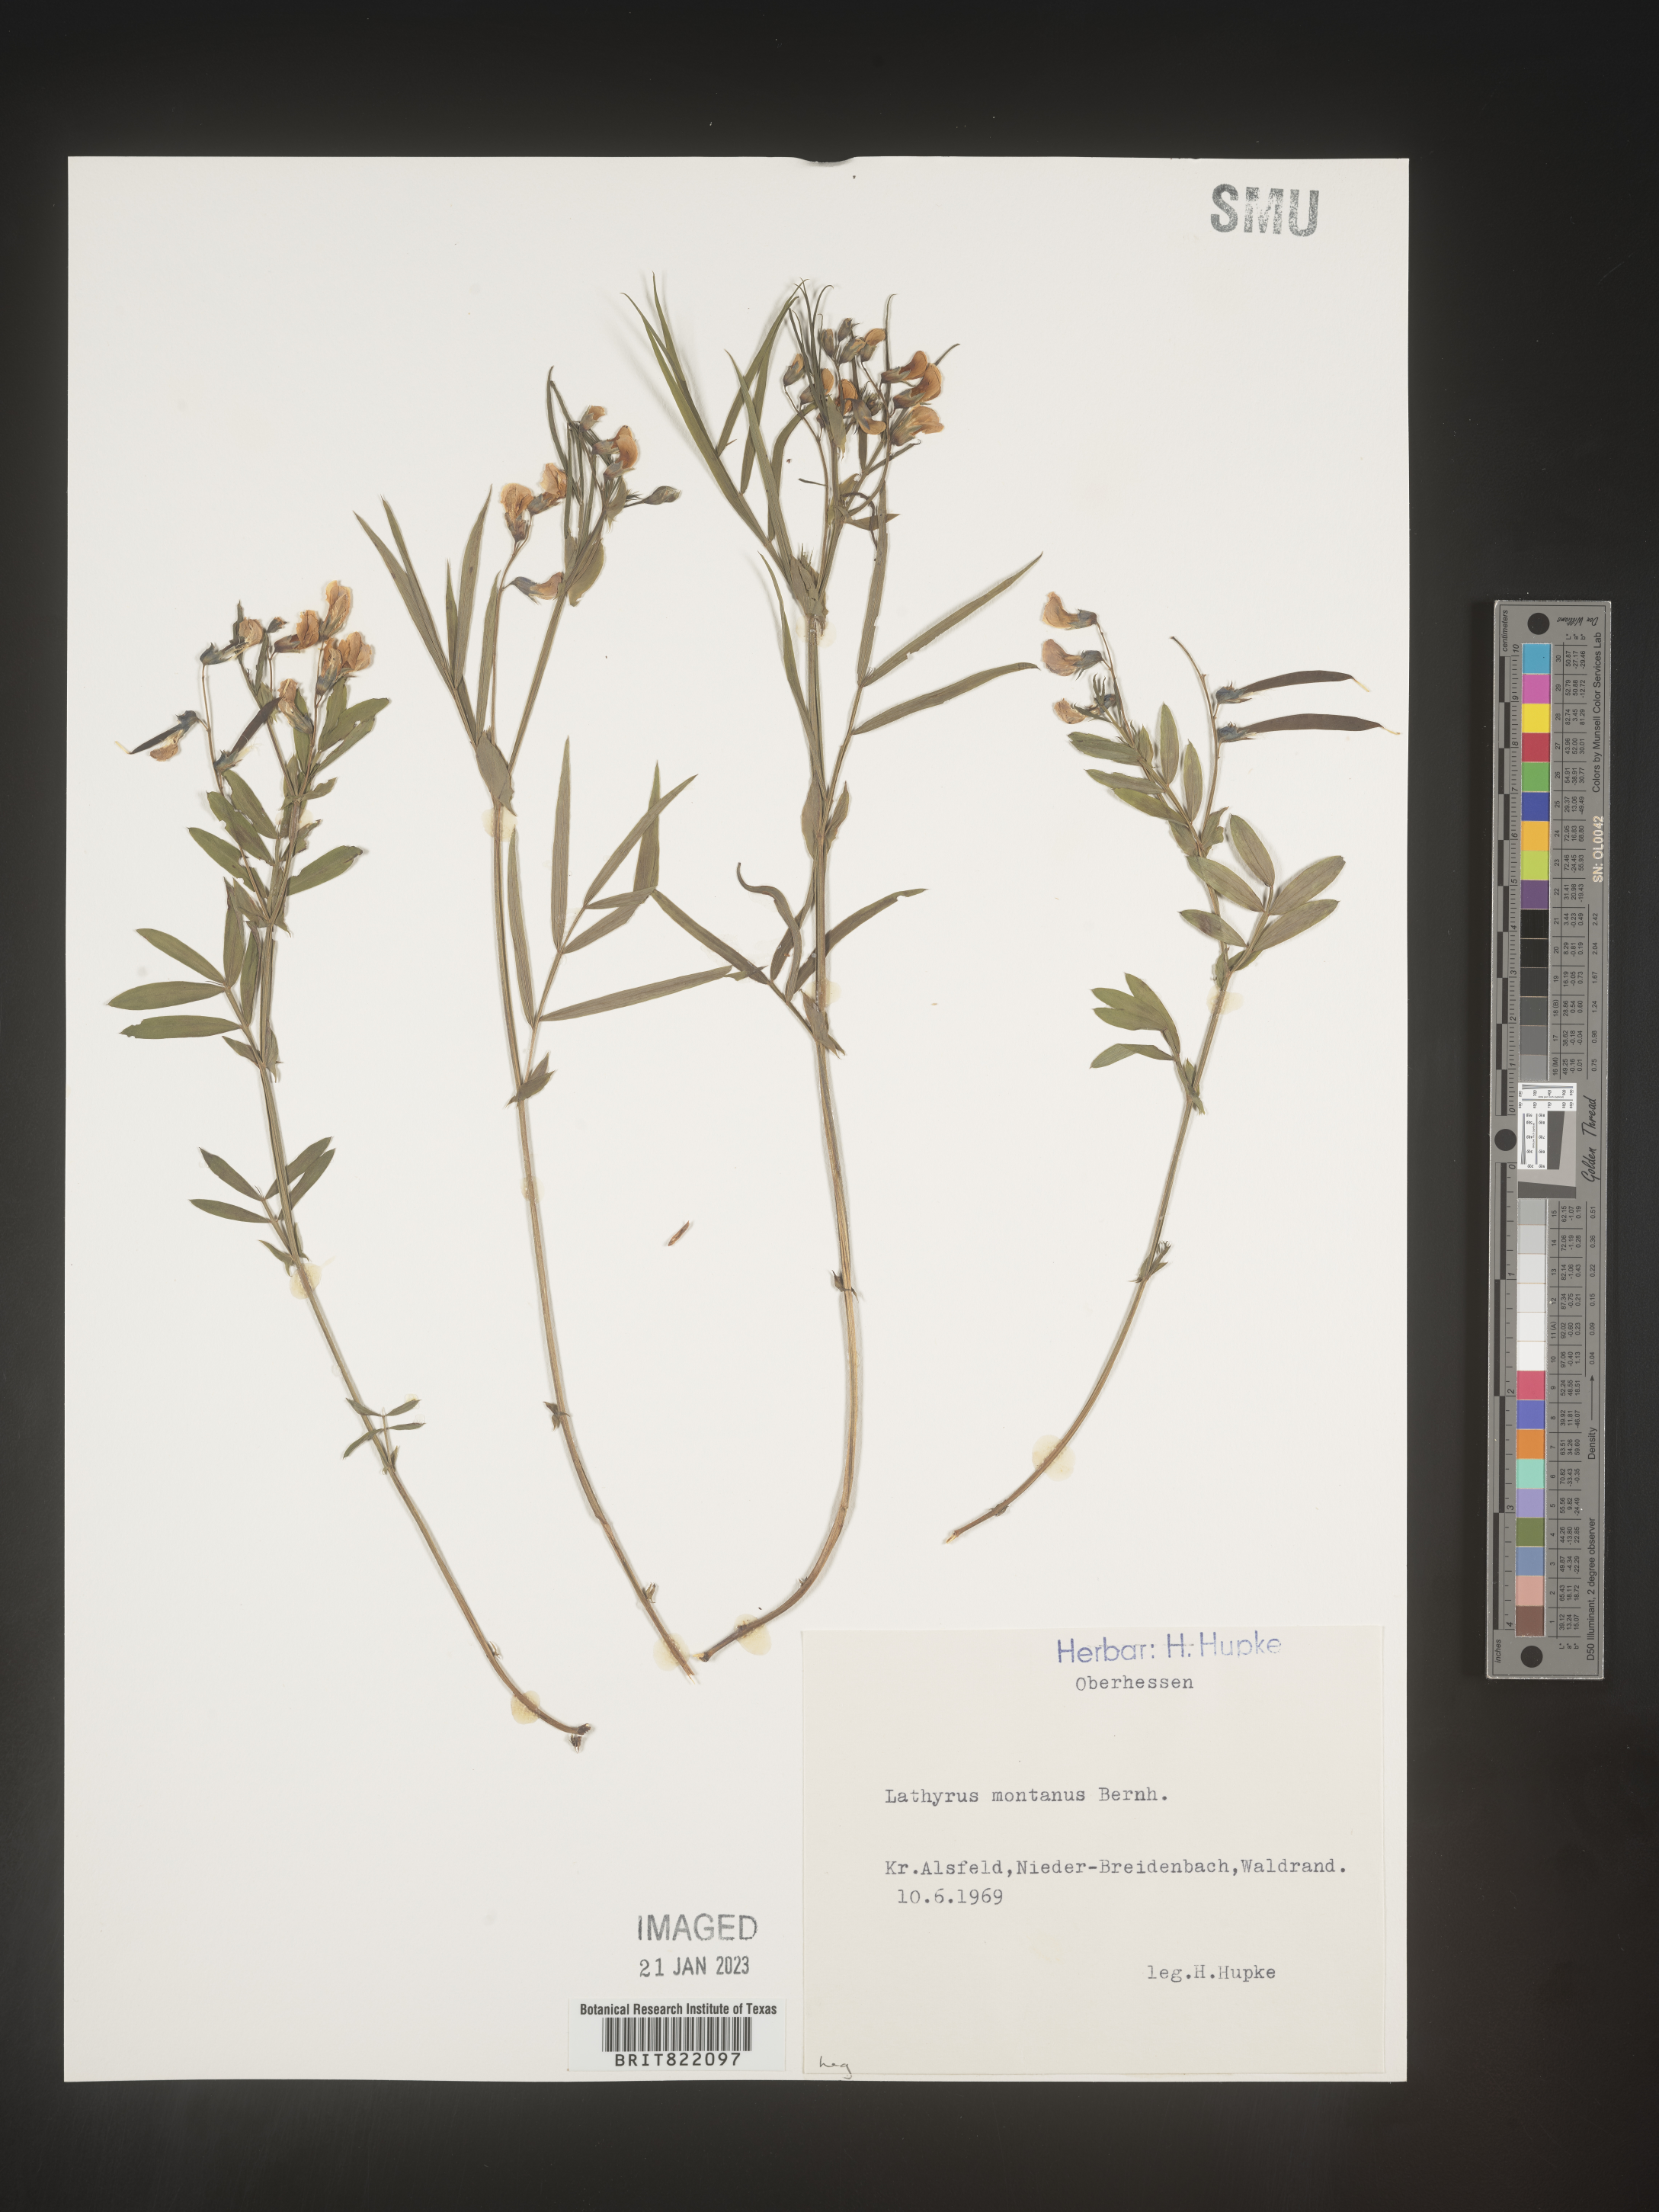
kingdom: Plantae
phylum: Tracheophyta
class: Magnoliopsida
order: Fabales
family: Fabaceae
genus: Lathyrus
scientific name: Lathyrus
